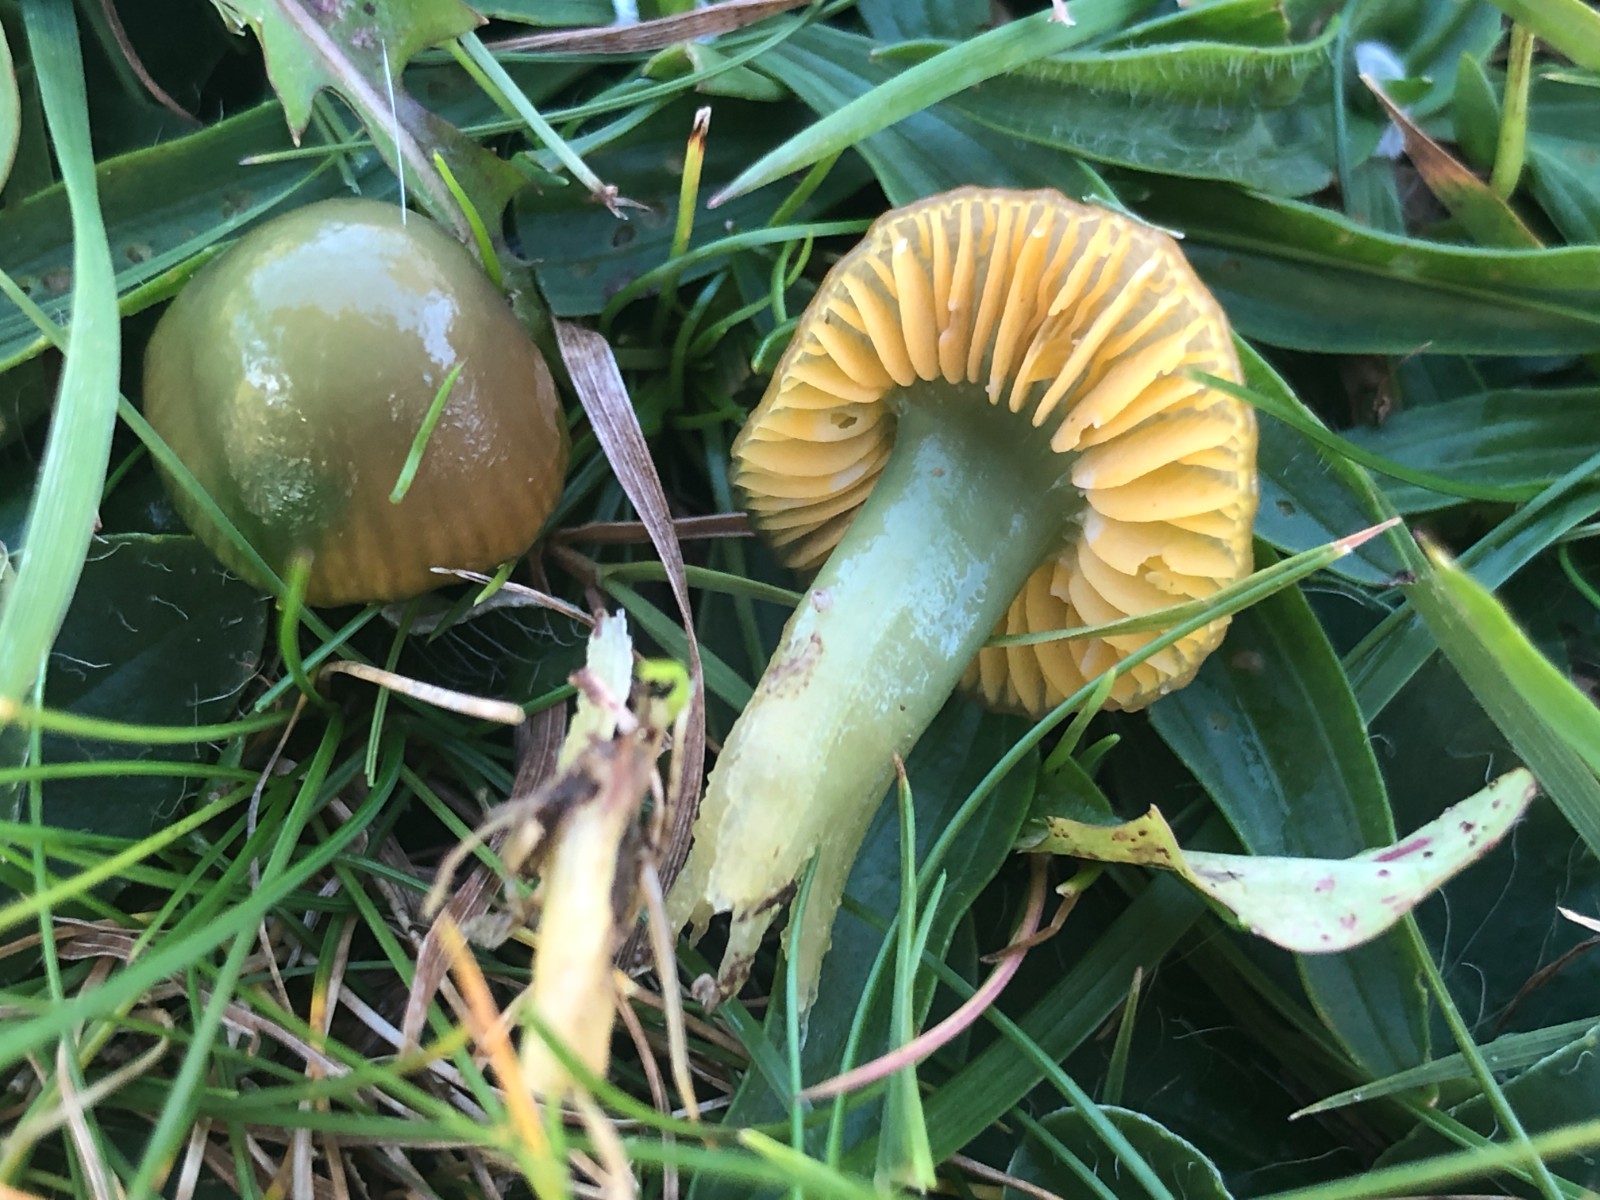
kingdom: Fungi
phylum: Basidiomycota
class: Agaricomycetes
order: Agaricales
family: Hygrophoraceae
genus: Gliophorus
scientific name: Gliophorus psittacinus
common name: papegøje-vokshat
